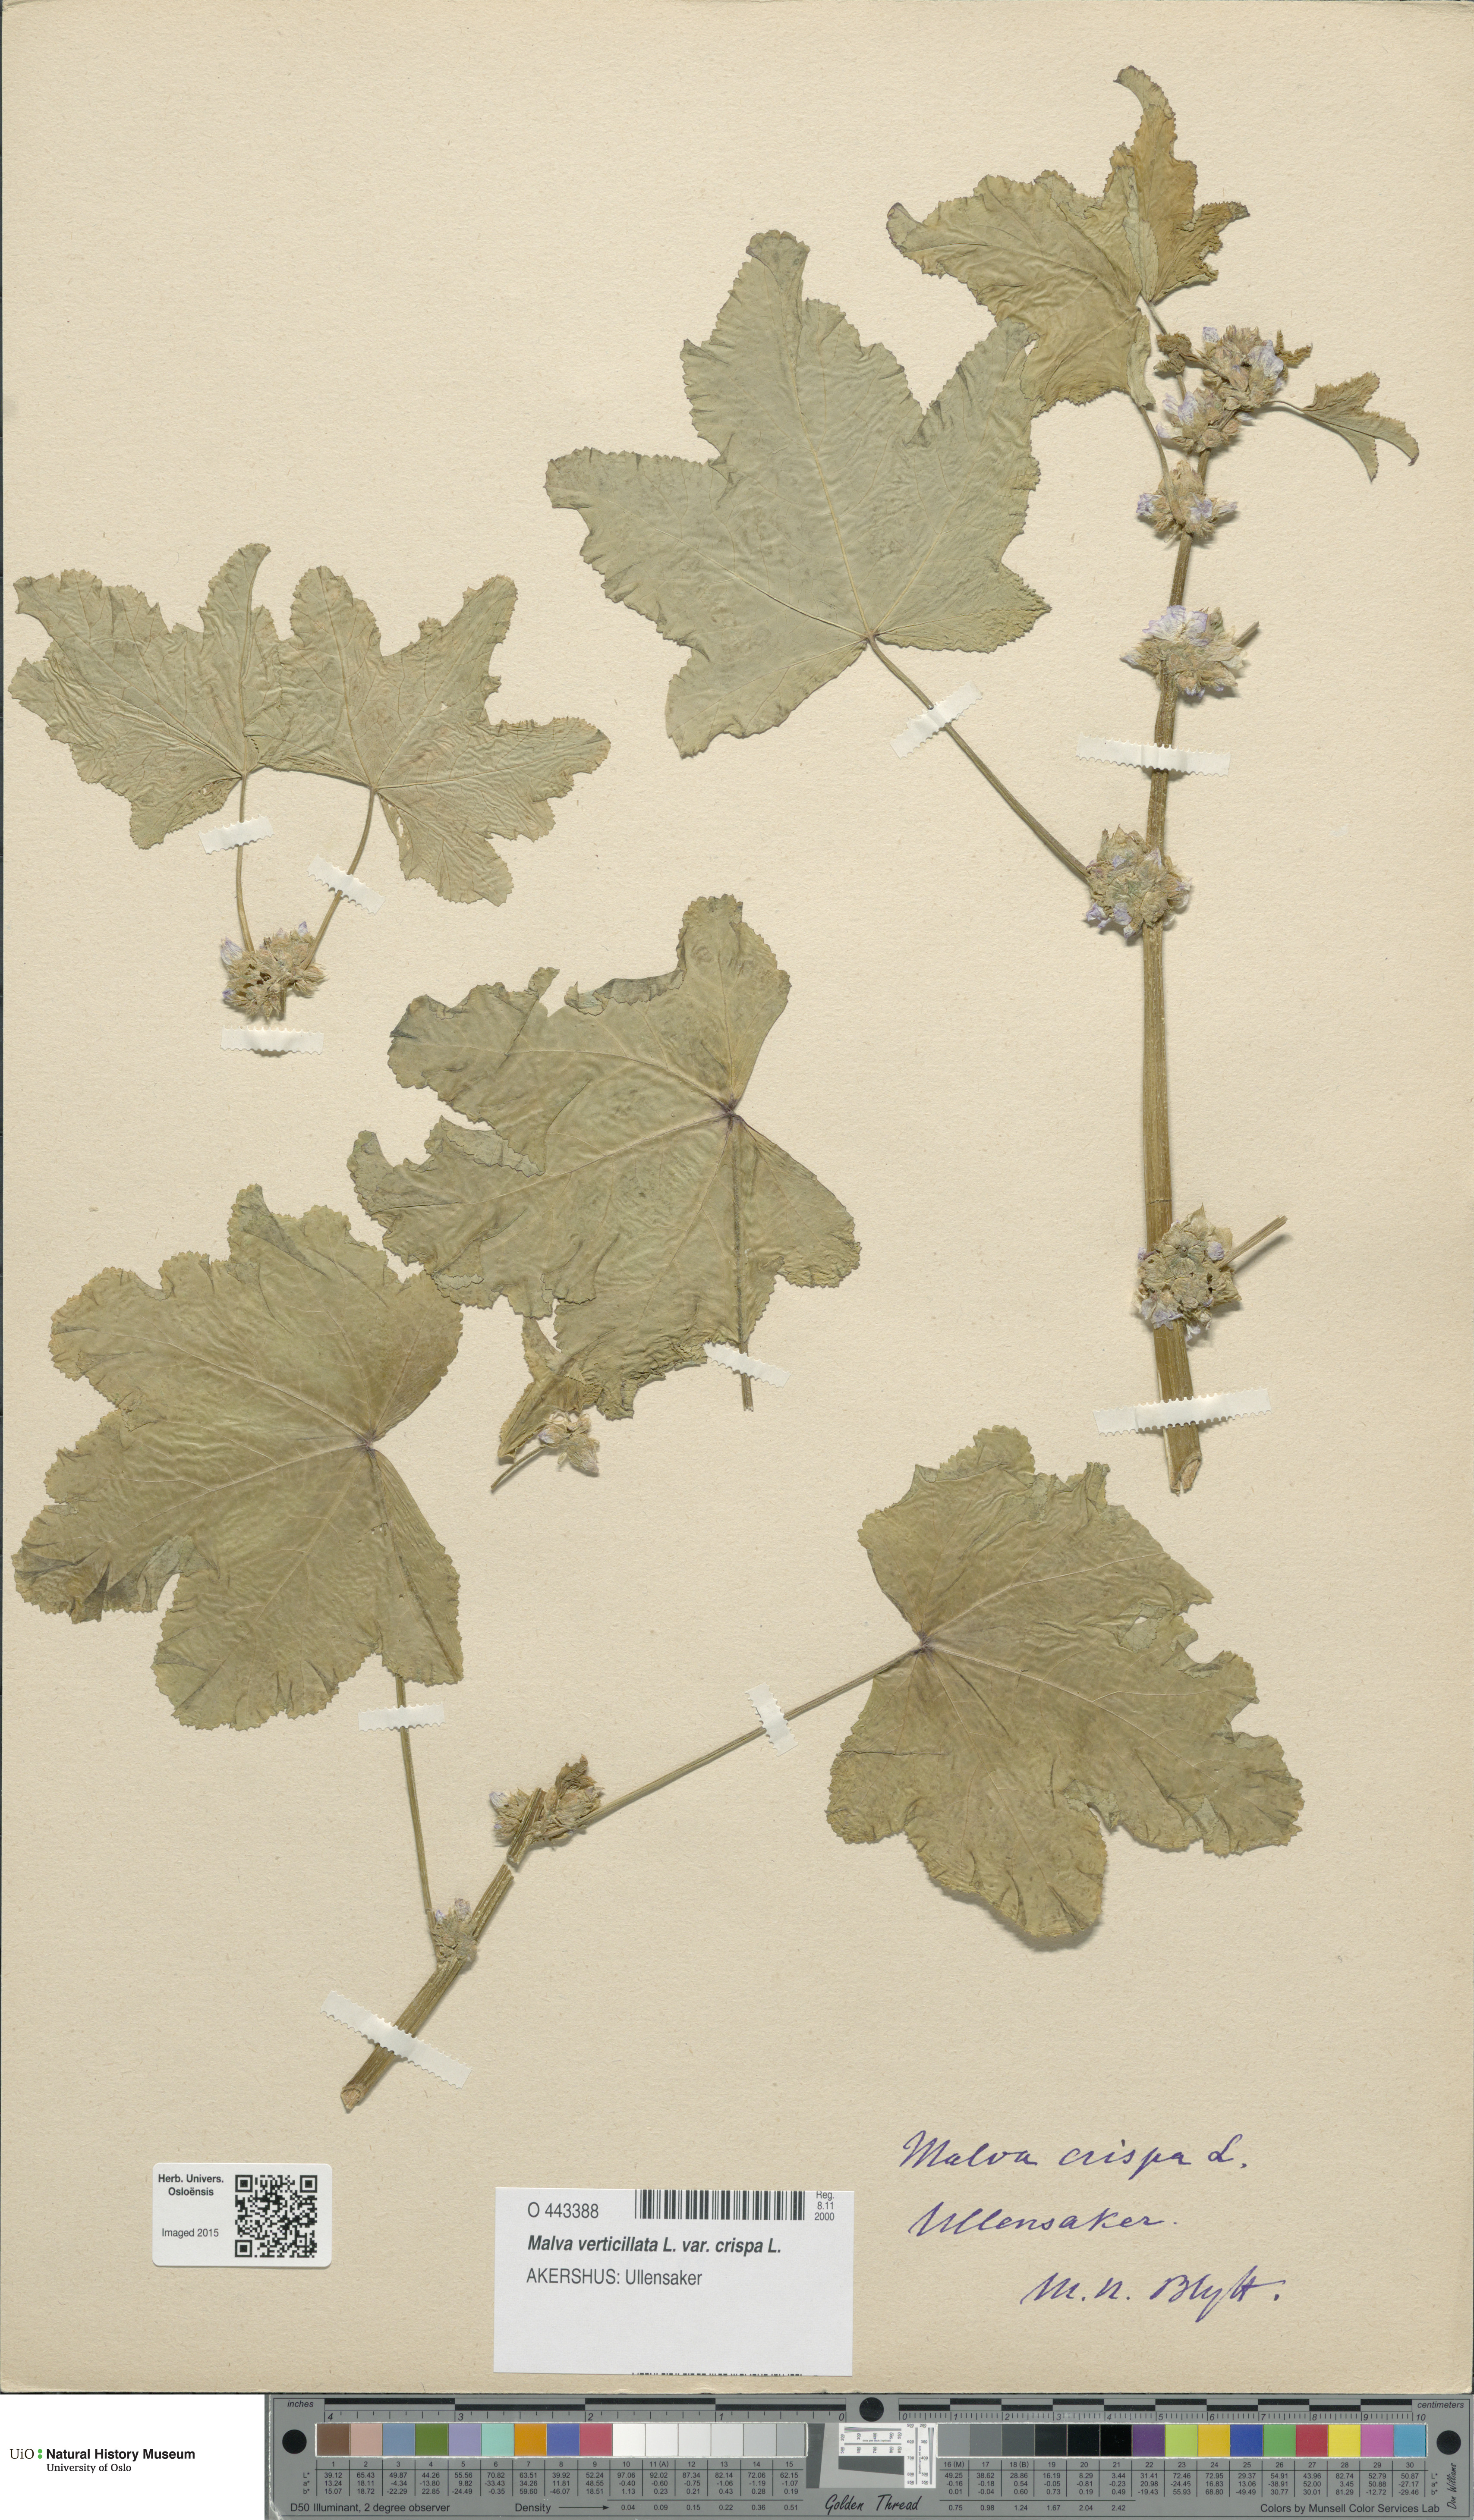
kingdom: Plantae
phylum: Tracheophyta
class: Magnoliopsida
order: Malvales
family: Malvaceae
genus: Malva
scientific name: Malva verticillata
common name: Chinese mallow
